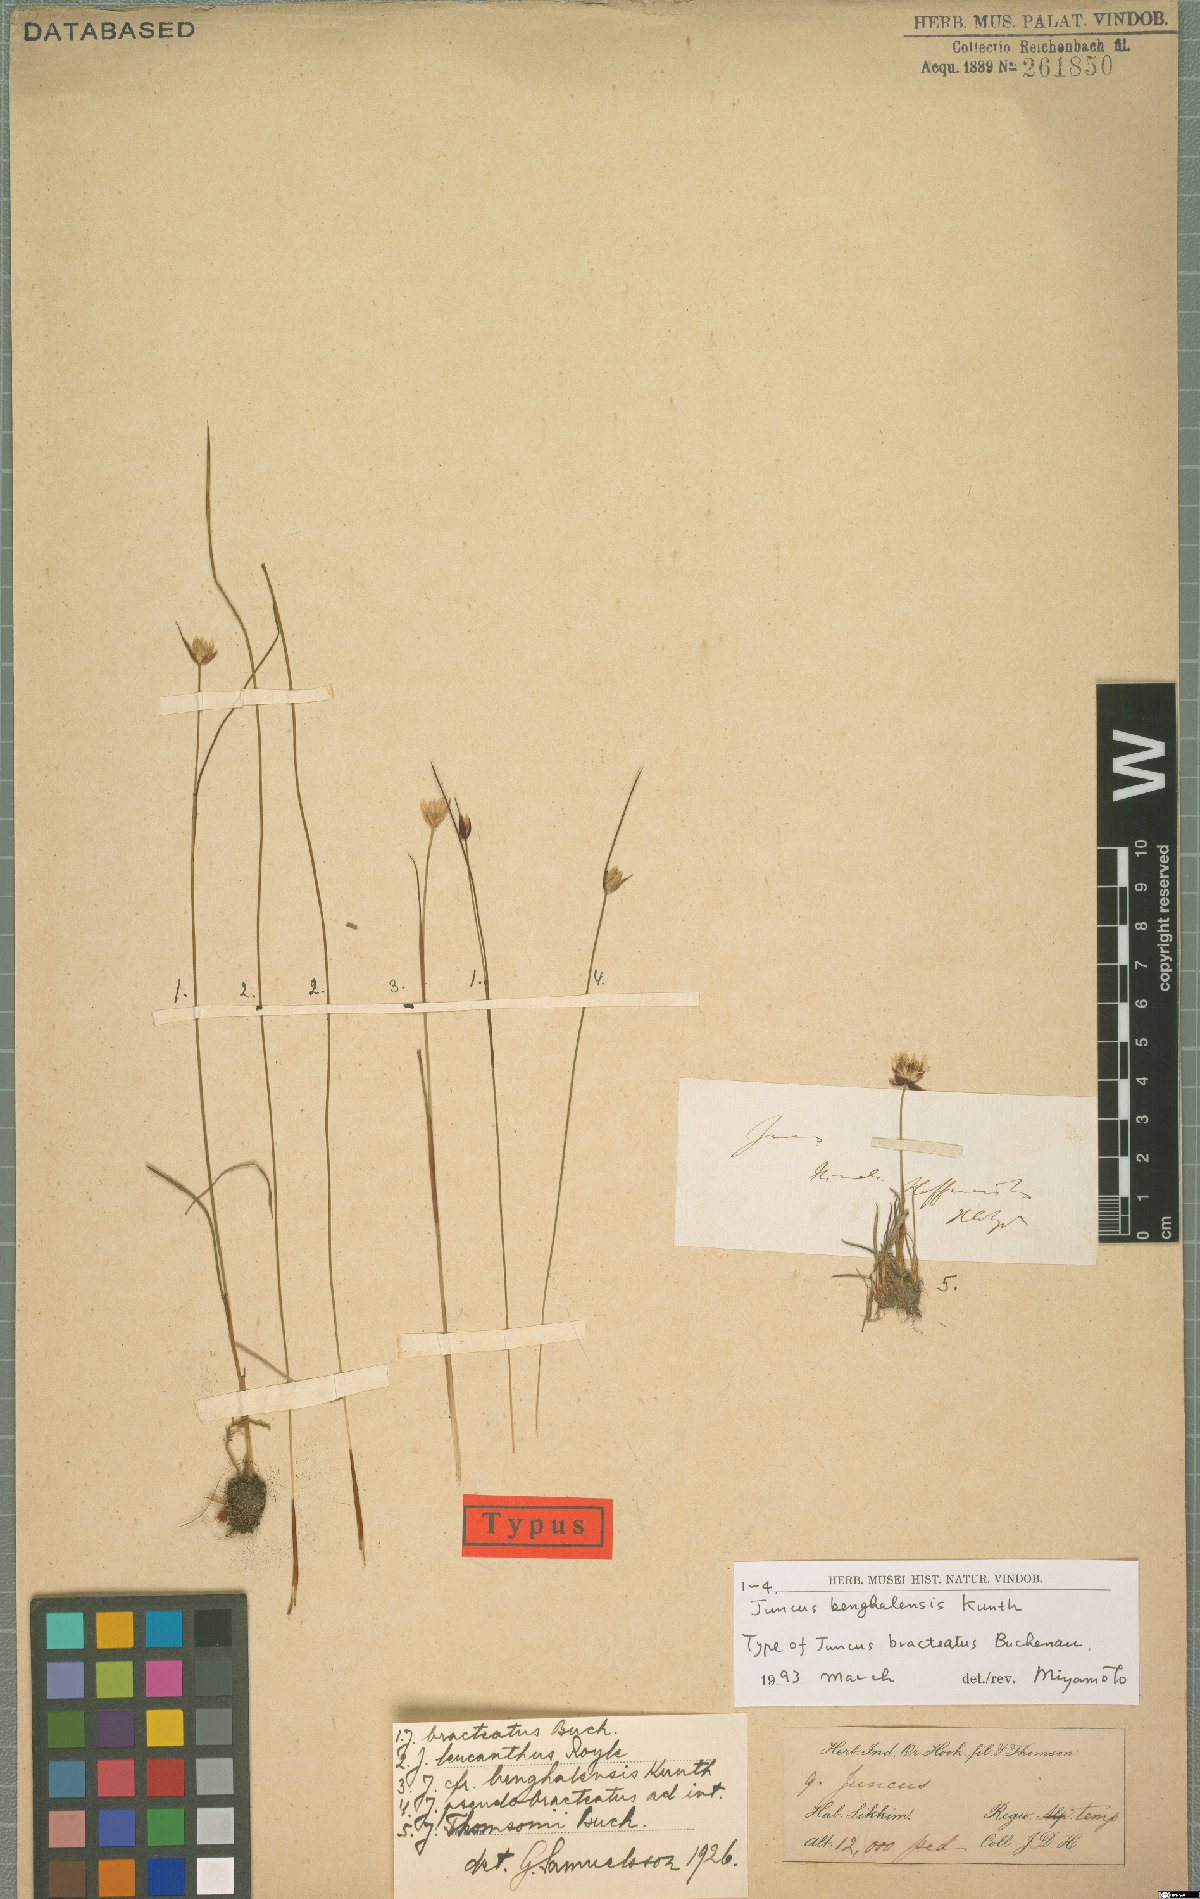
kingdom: Plantae
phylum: Tracheophyta
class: Liliopsida
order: Poales
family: Juncaceae
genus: Juncus
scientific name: Juncus benghalensis
